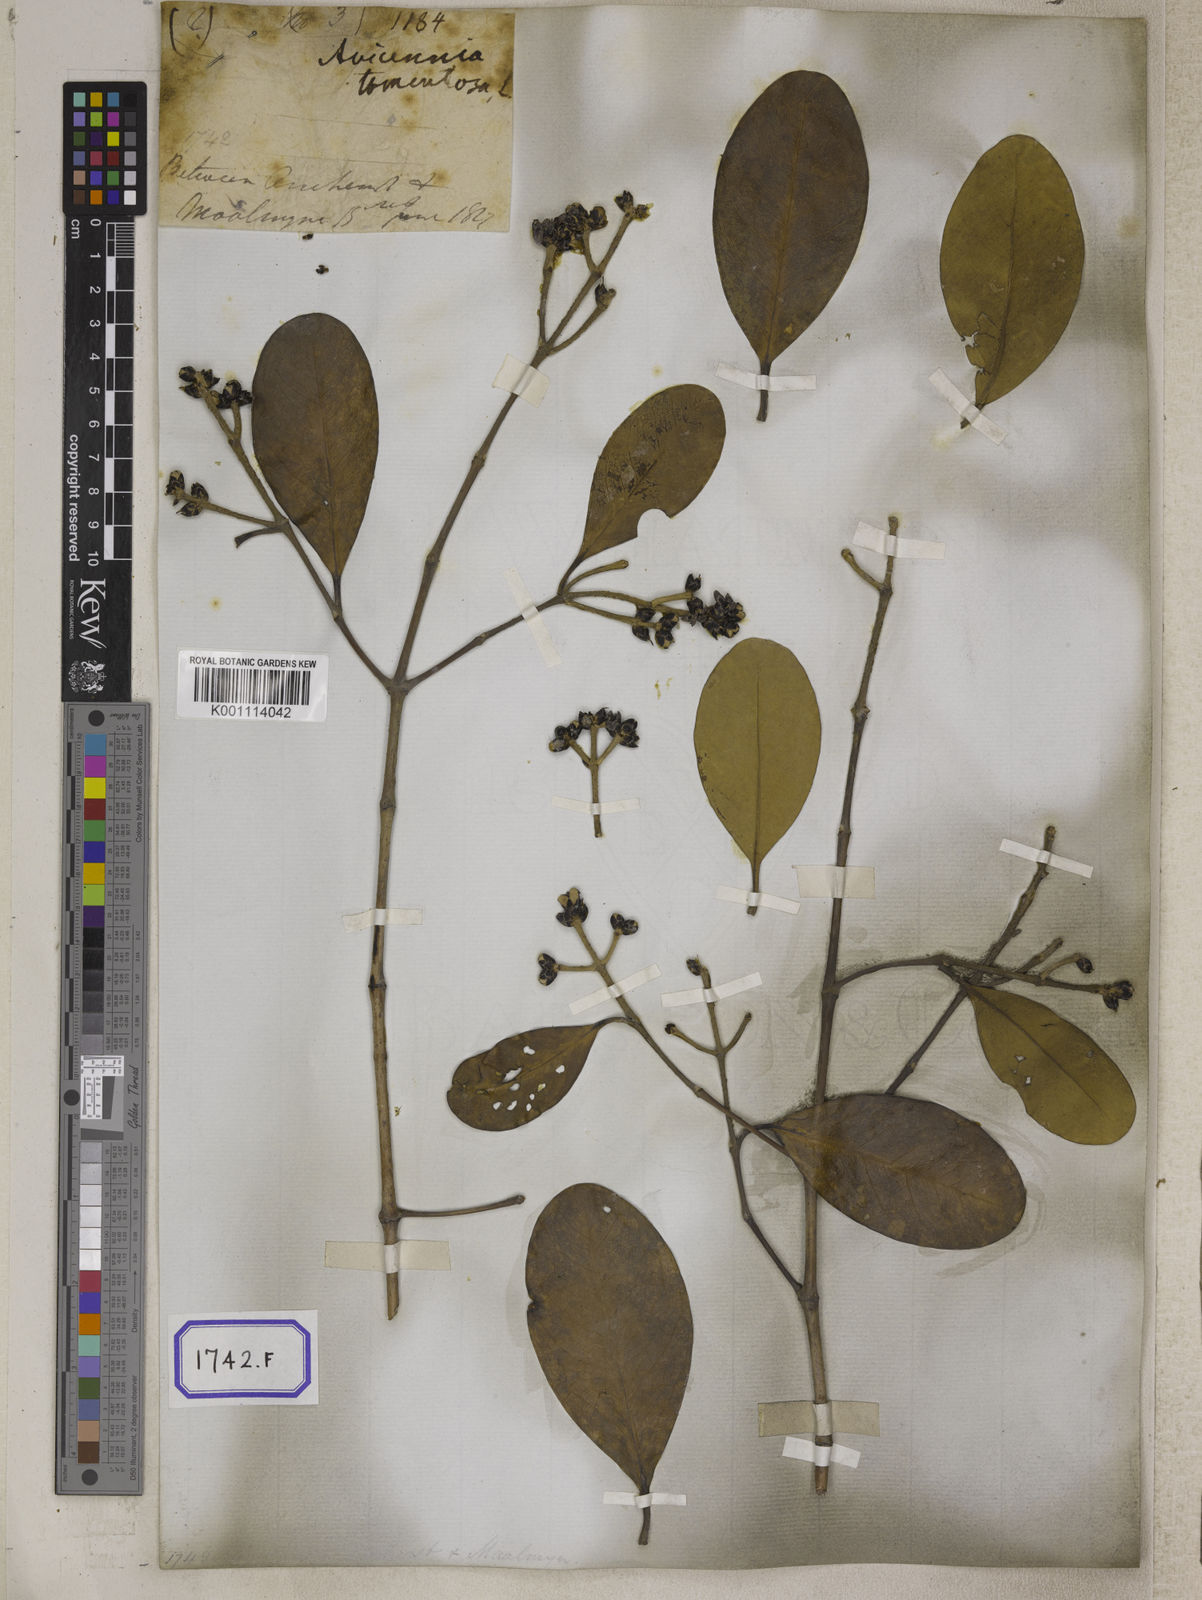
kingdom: Plantae
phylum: Tracheophyta
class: Magnoliopsida
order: Lamiales
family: Acanthaceae
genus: Avicennia
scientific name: Avicennia germinans
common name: Black mangrove
